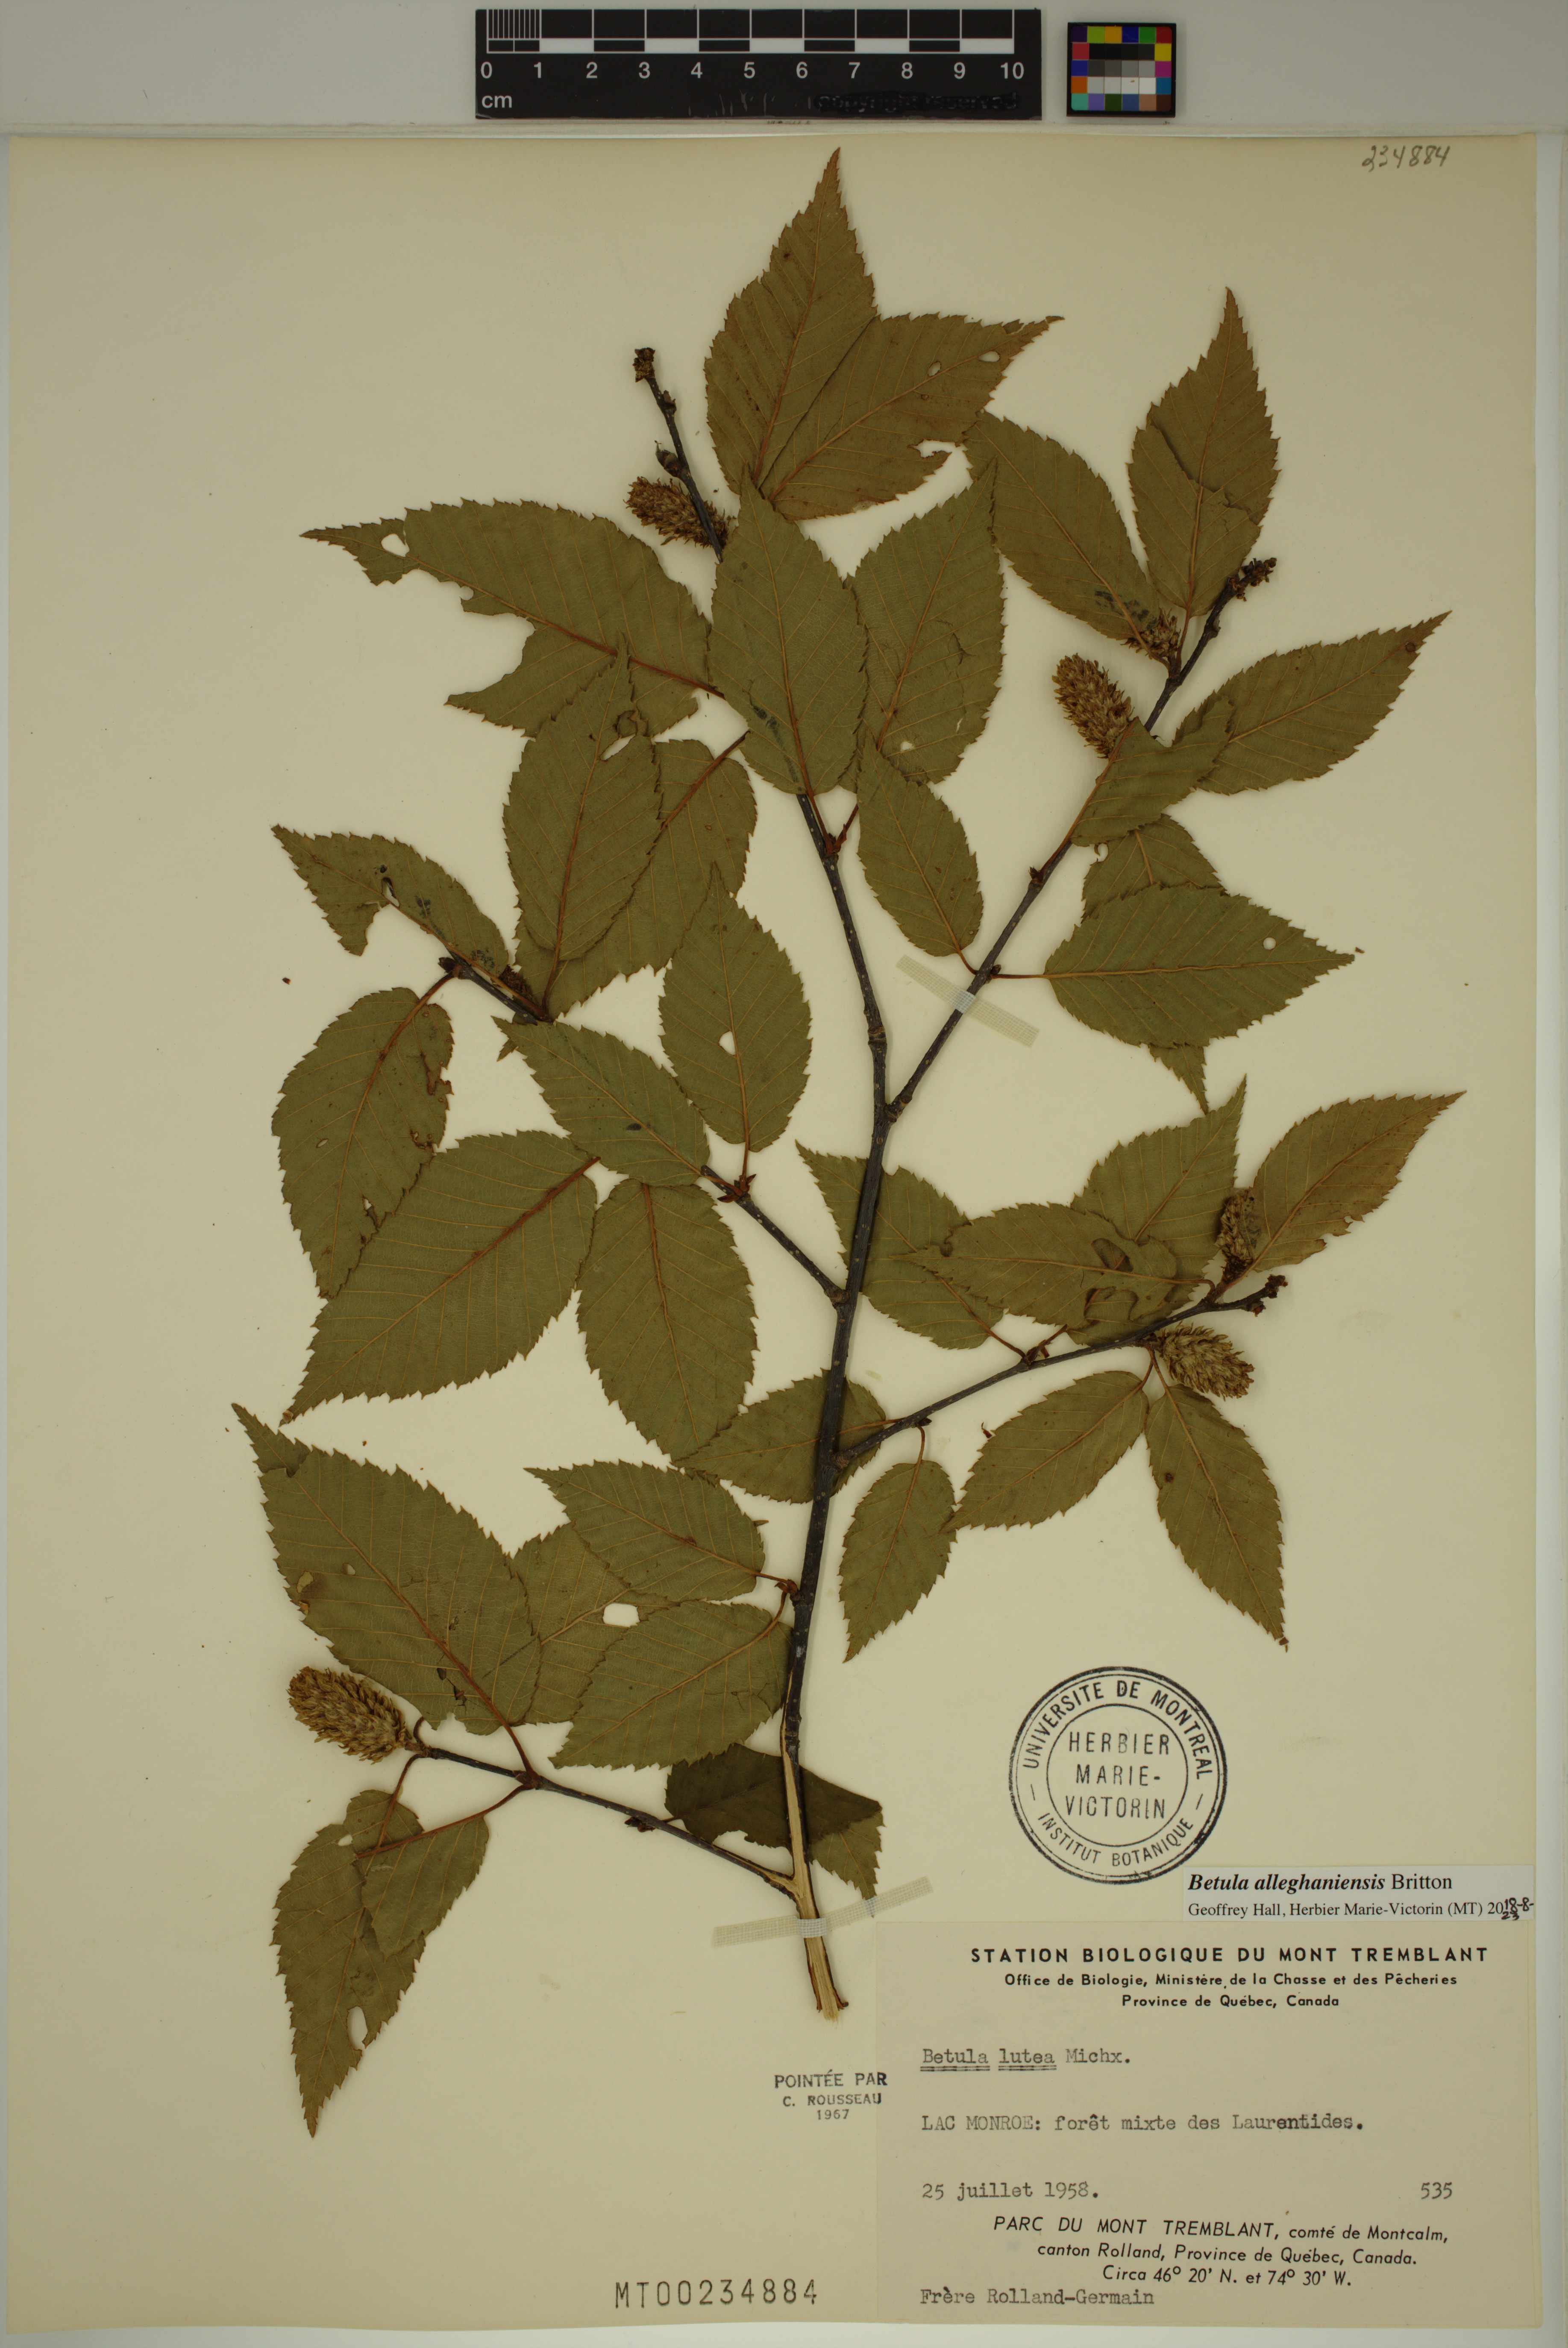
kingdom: Plantae
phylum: Tracheophyta
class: Magnoliopsida
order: Fagales
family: Betulaceae
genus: Betula
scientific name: Betula alleghaniensis
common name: Yellow birch
